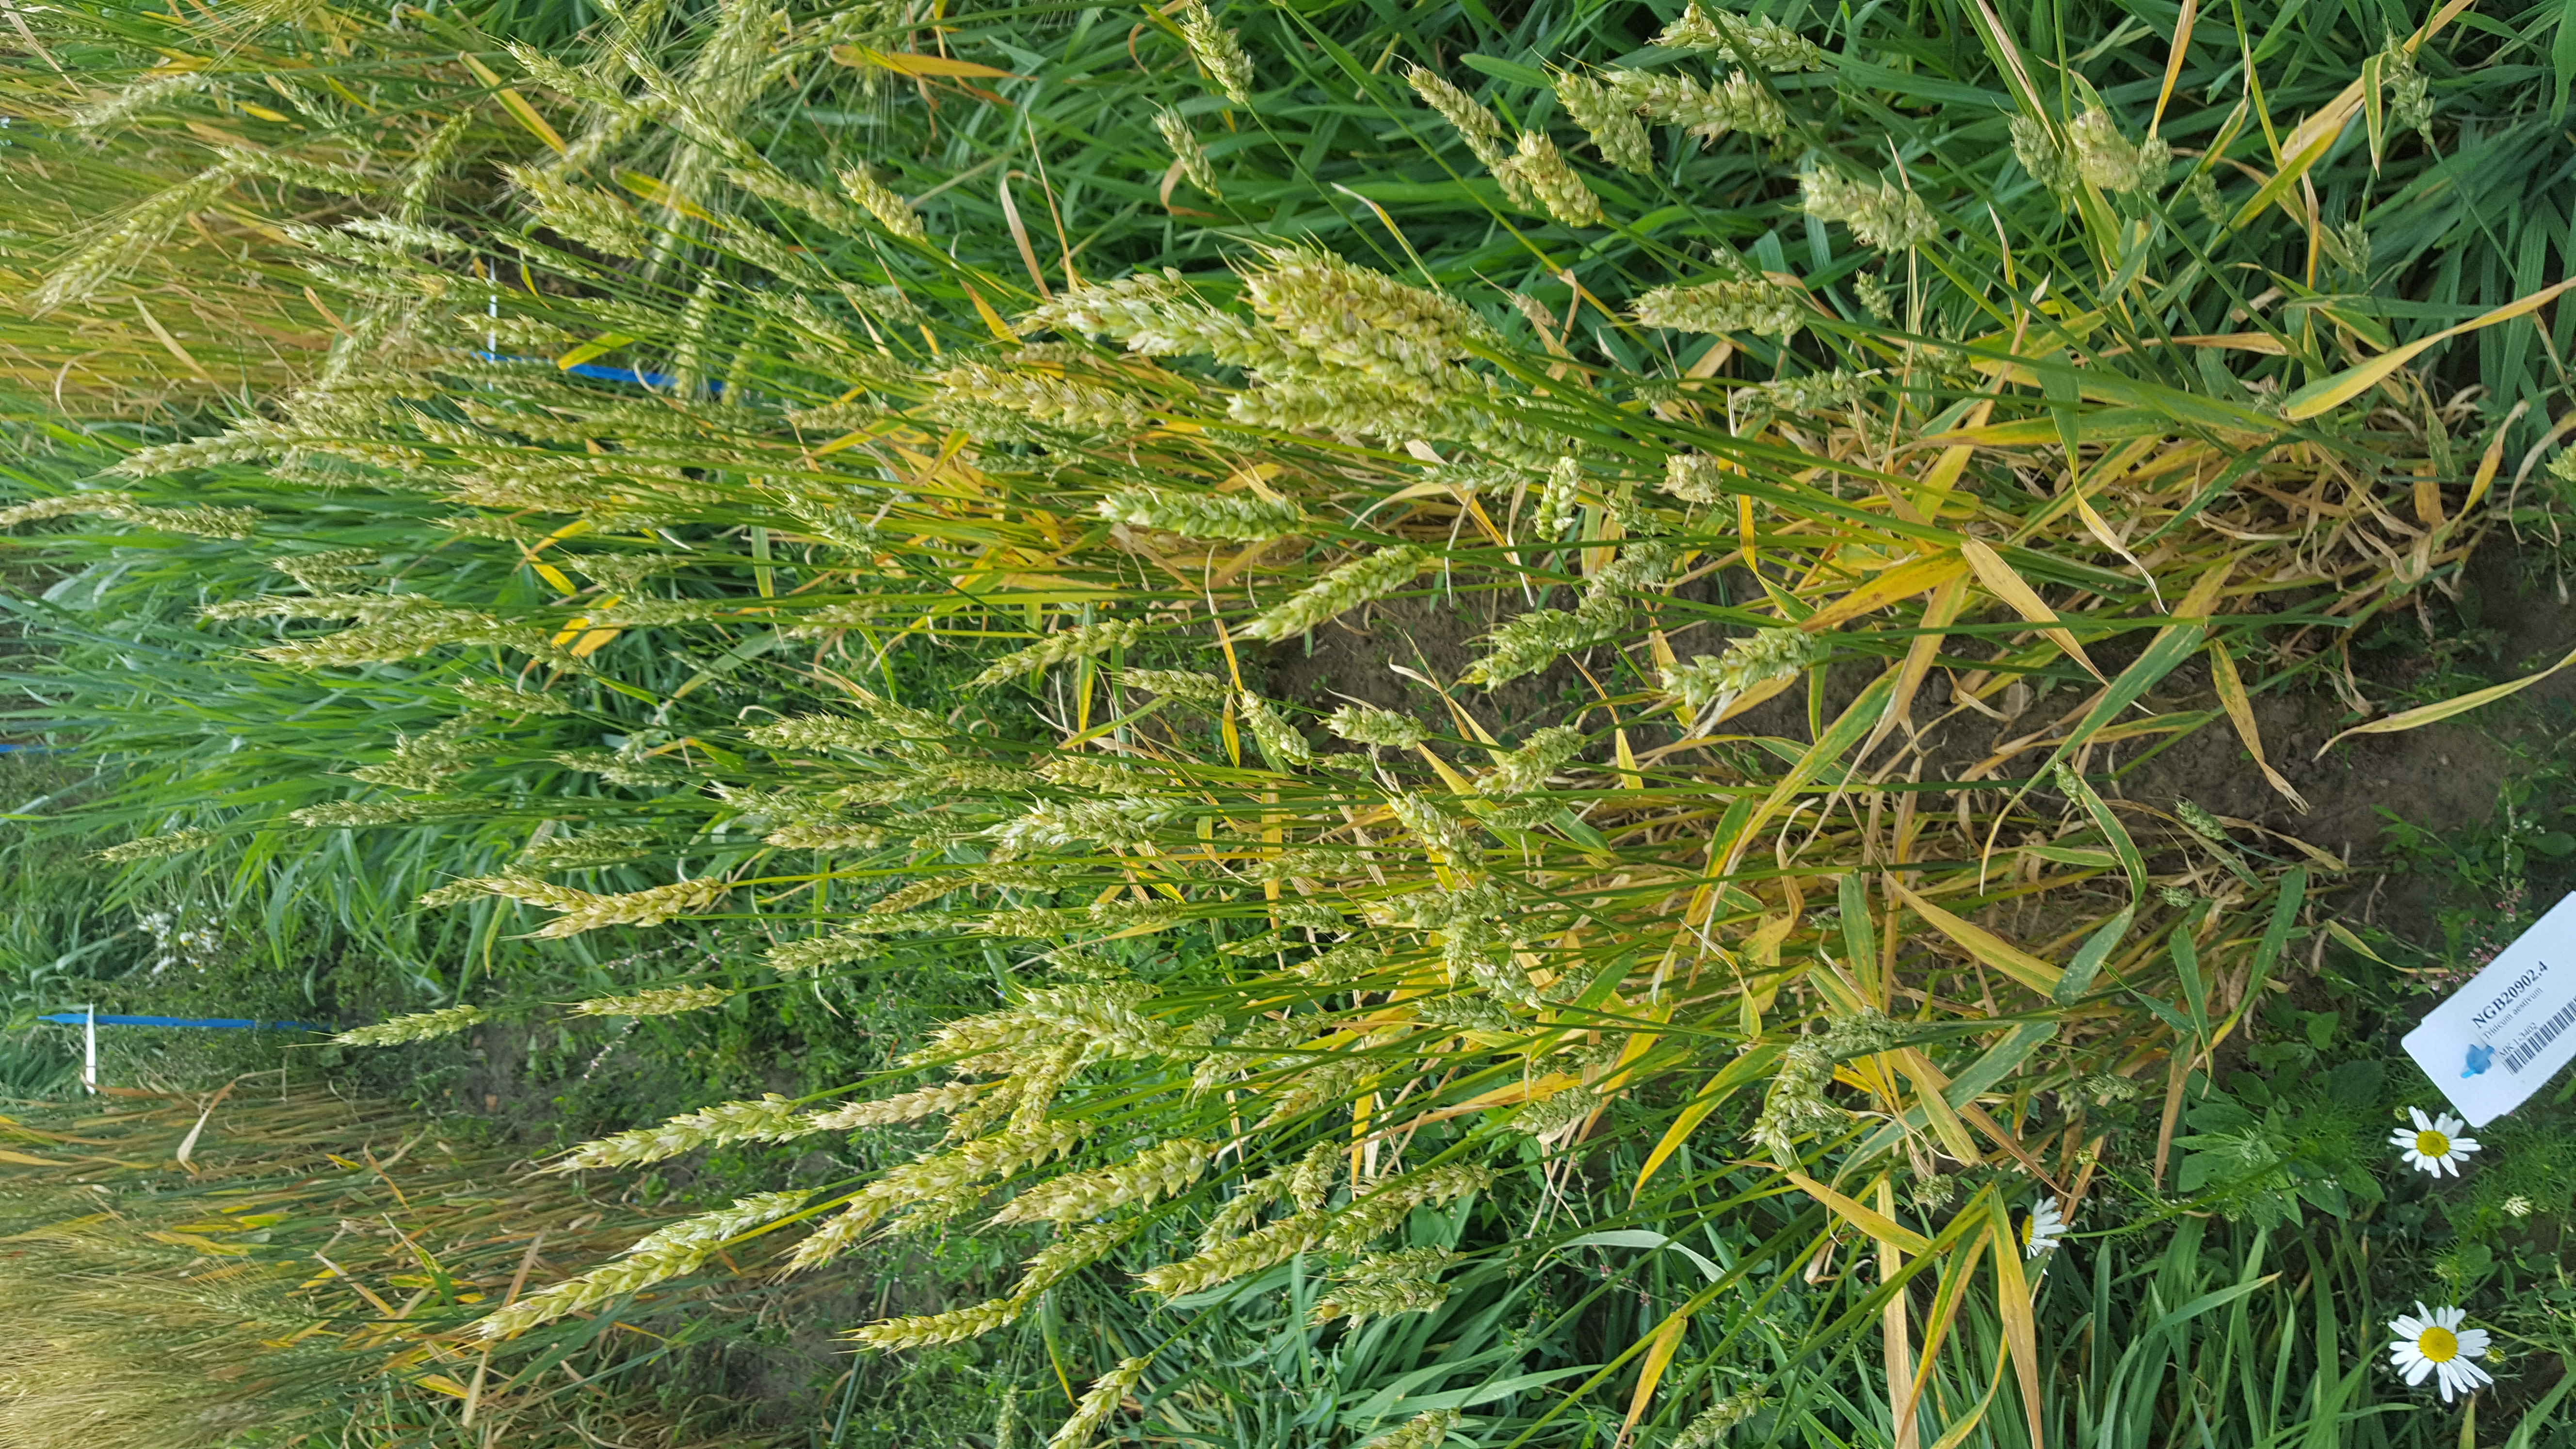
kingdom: Plantae
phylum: Tracheophyta
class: Liliopsida
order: Poales
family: Poaceae
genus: Triticum
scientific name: Triticum aestivum
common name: Common wheat
